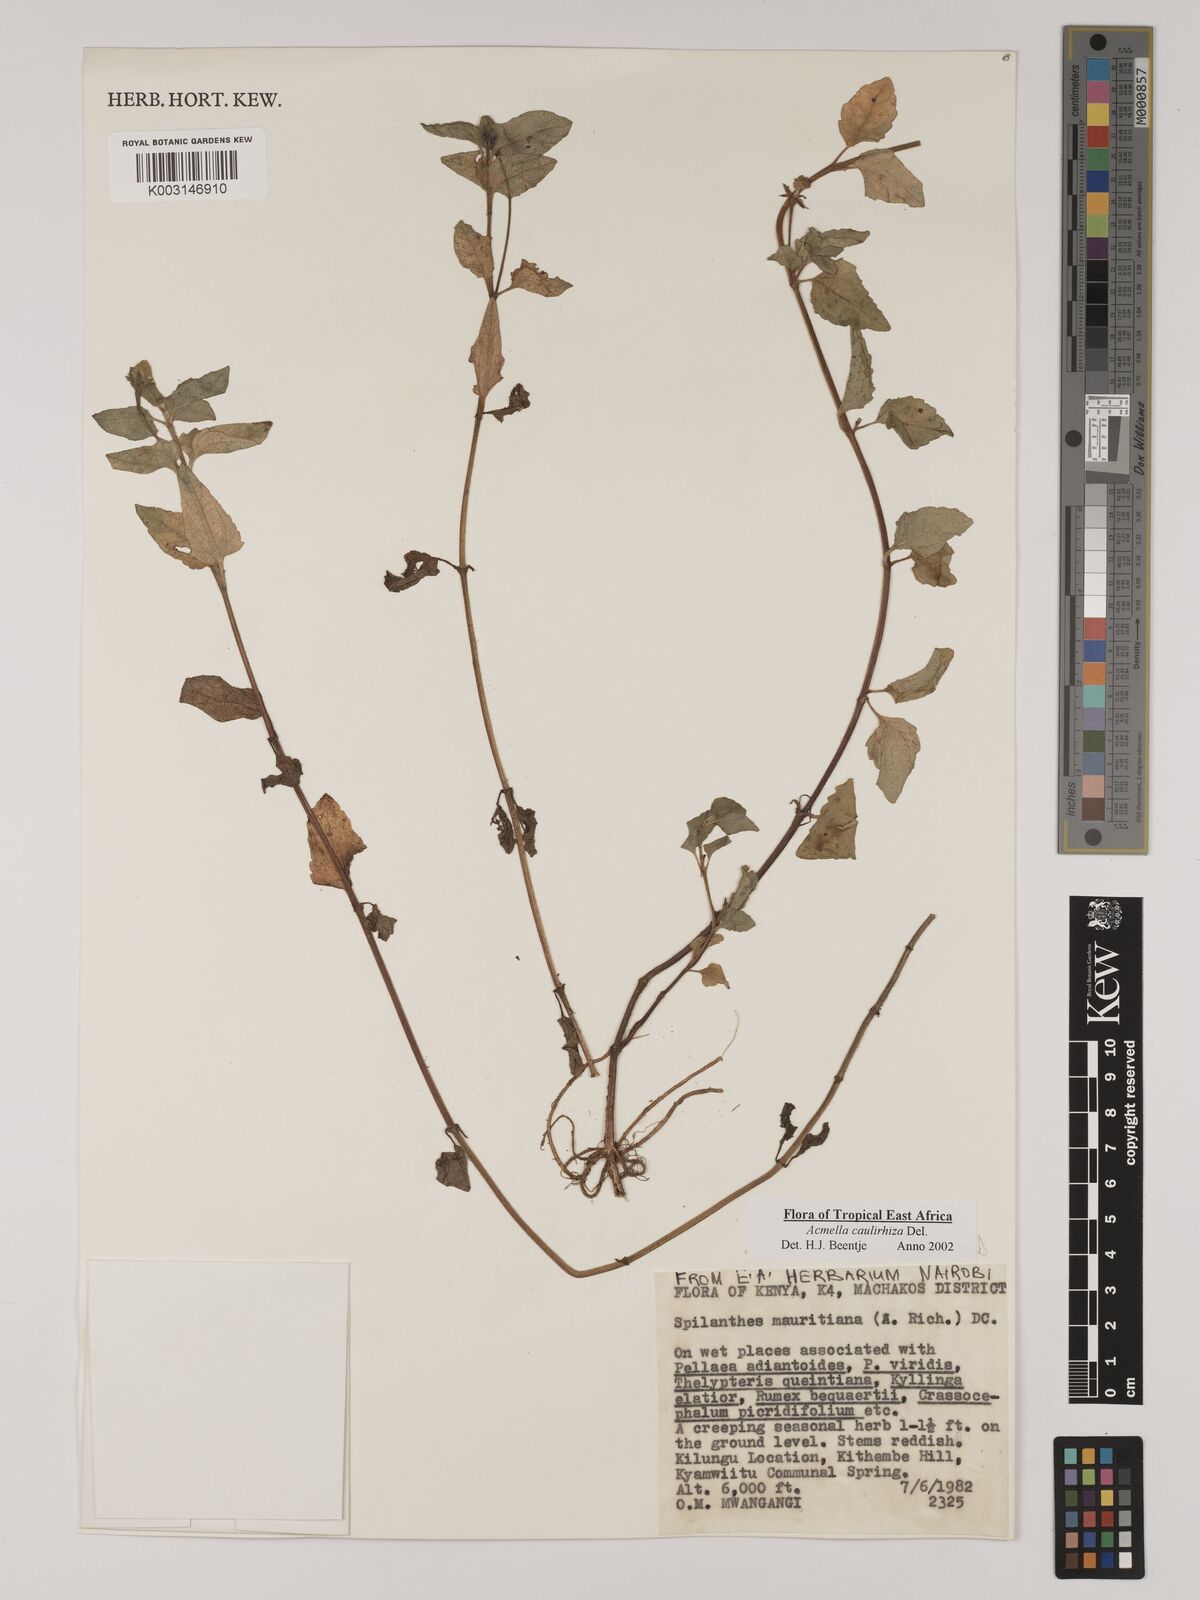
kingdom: Plantae
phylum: Tracheophyta
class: Magnoliopsida
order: Asterales
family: Asteraceae
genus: Acmella
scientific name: Acmella caulirhiza
